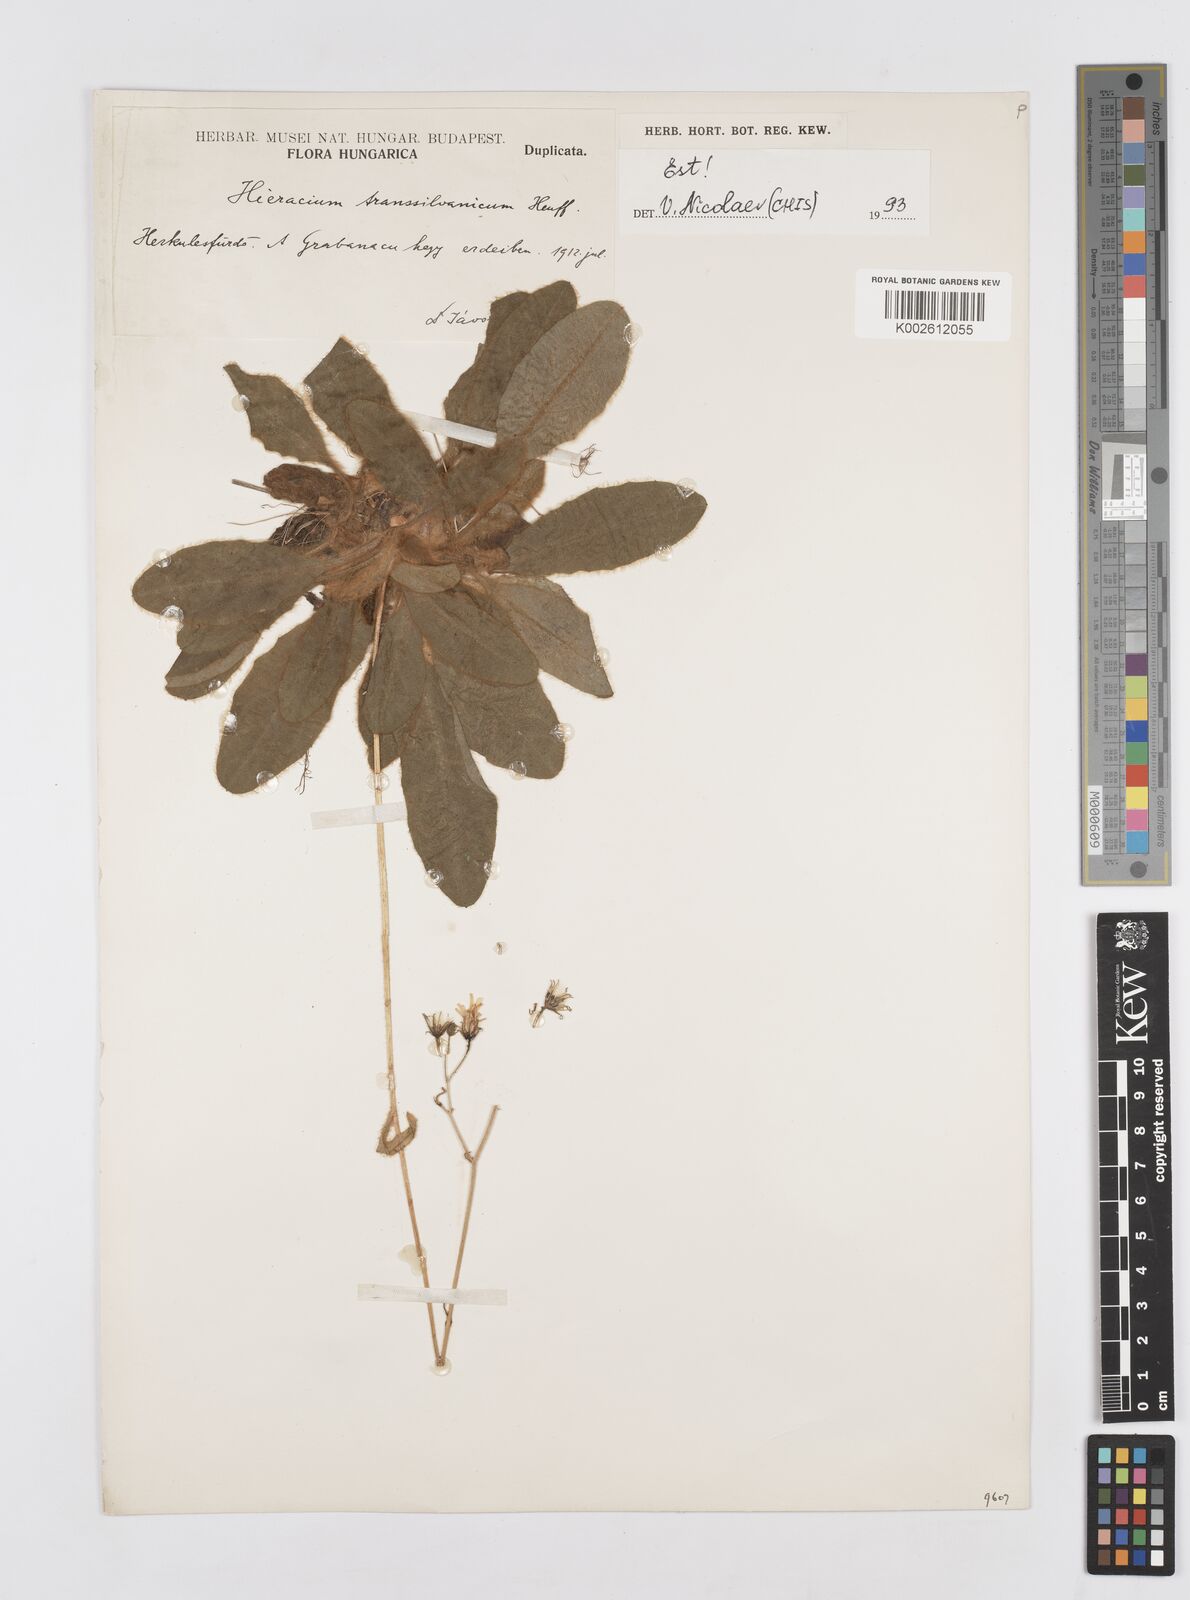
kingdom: Plantae
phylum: Tracheophyta
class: Magnoliopsida
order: Asterales
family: Asteraceae
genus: Hieracium
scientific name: Hieracium transylvanicum
